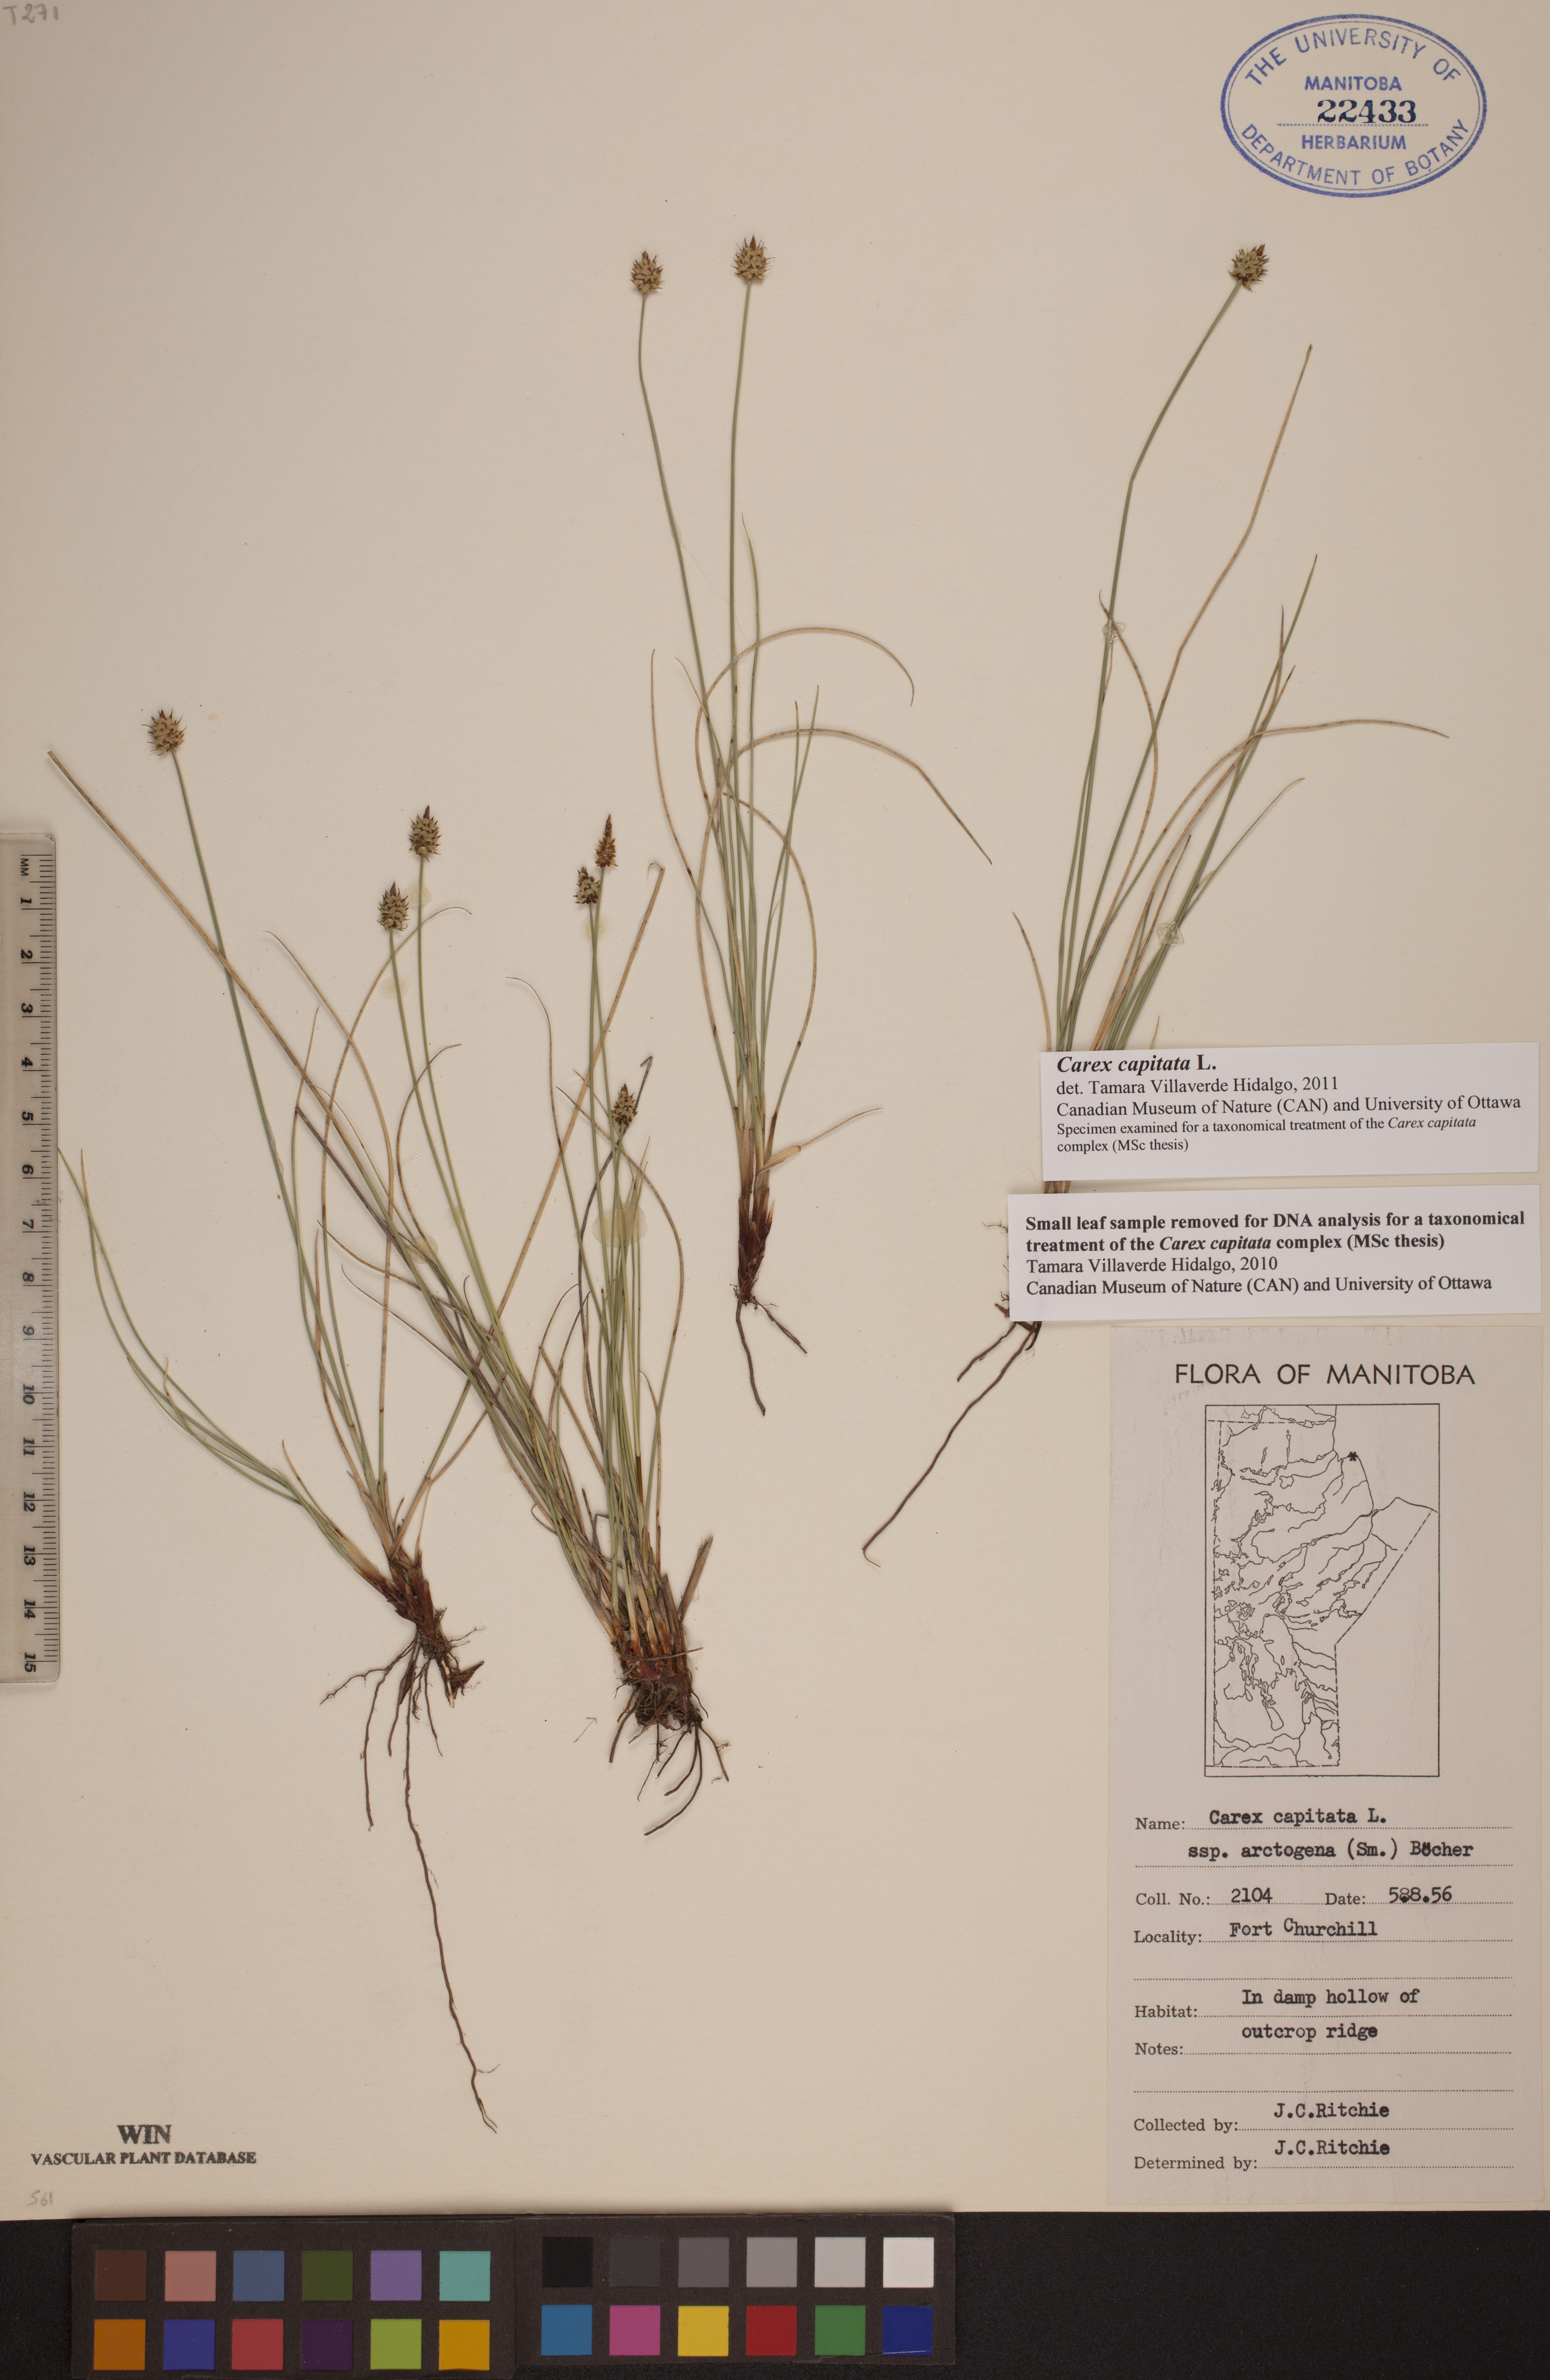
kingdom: Plantae
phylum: Tracheophyta
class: Liliopsida
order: Poales
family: Cyperaceae
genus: Carex
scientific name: Carex capitata
